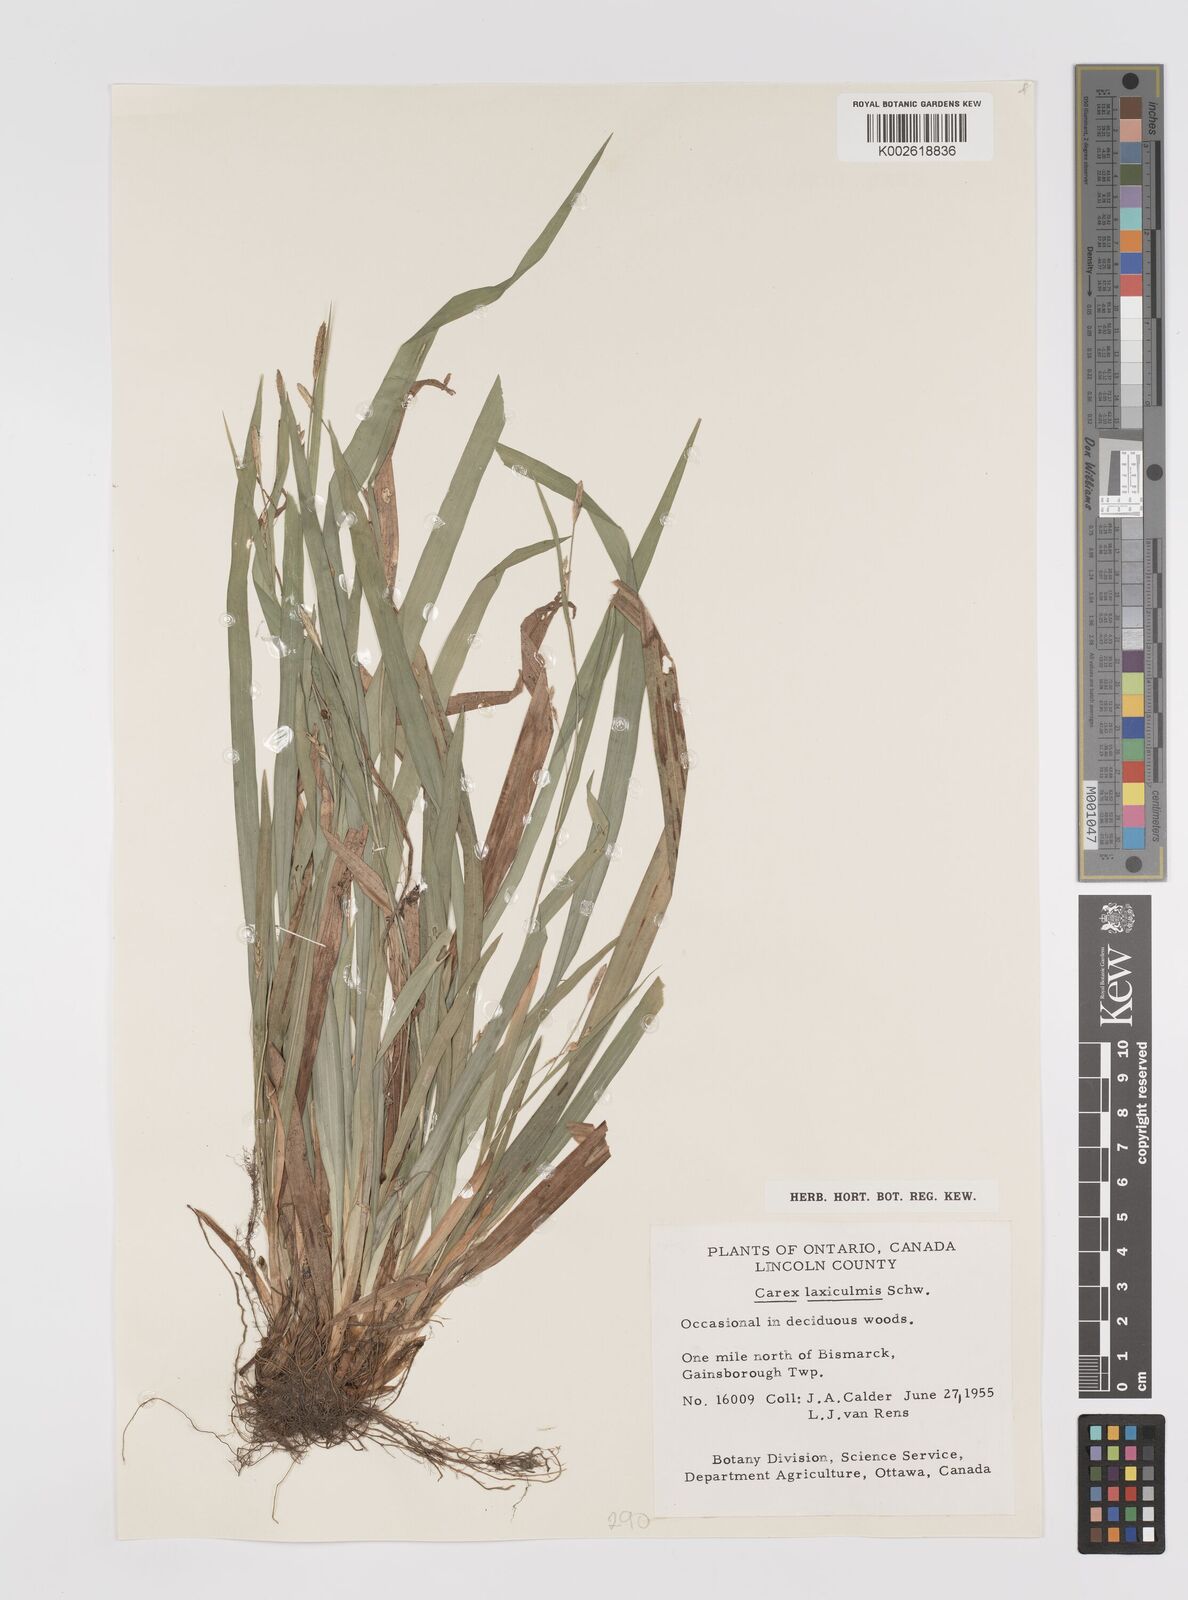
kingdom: Plantae
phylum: Tracheophyta
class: Liliopsida
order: Poales
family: Cyperaceae
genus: Carex
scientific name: Carex laxiculmis
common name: Spreading sedge
